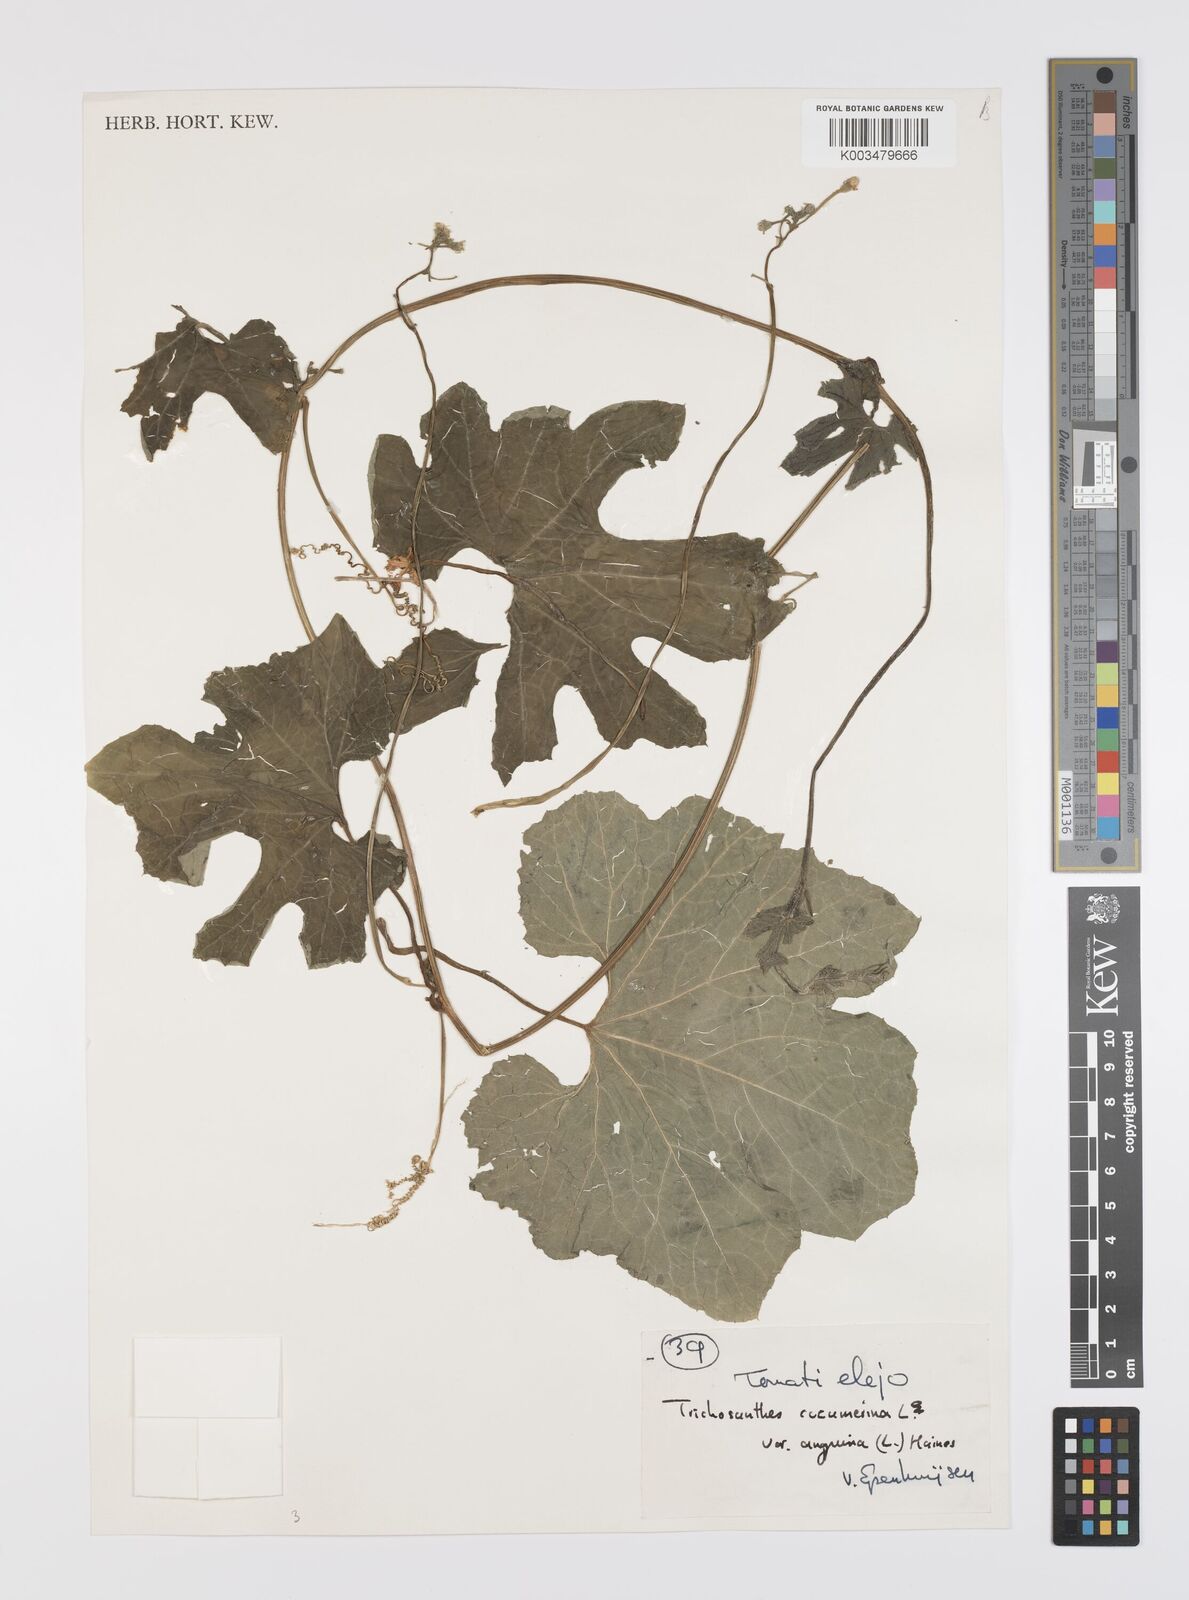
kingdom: Plantae
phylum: Tracheophyta
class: Magnoliopsida
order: Cucurbitales
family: Cucurbitaceae
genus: Trichosanthes
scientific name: Trichosanthes cucumerina
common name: Snakegourd
